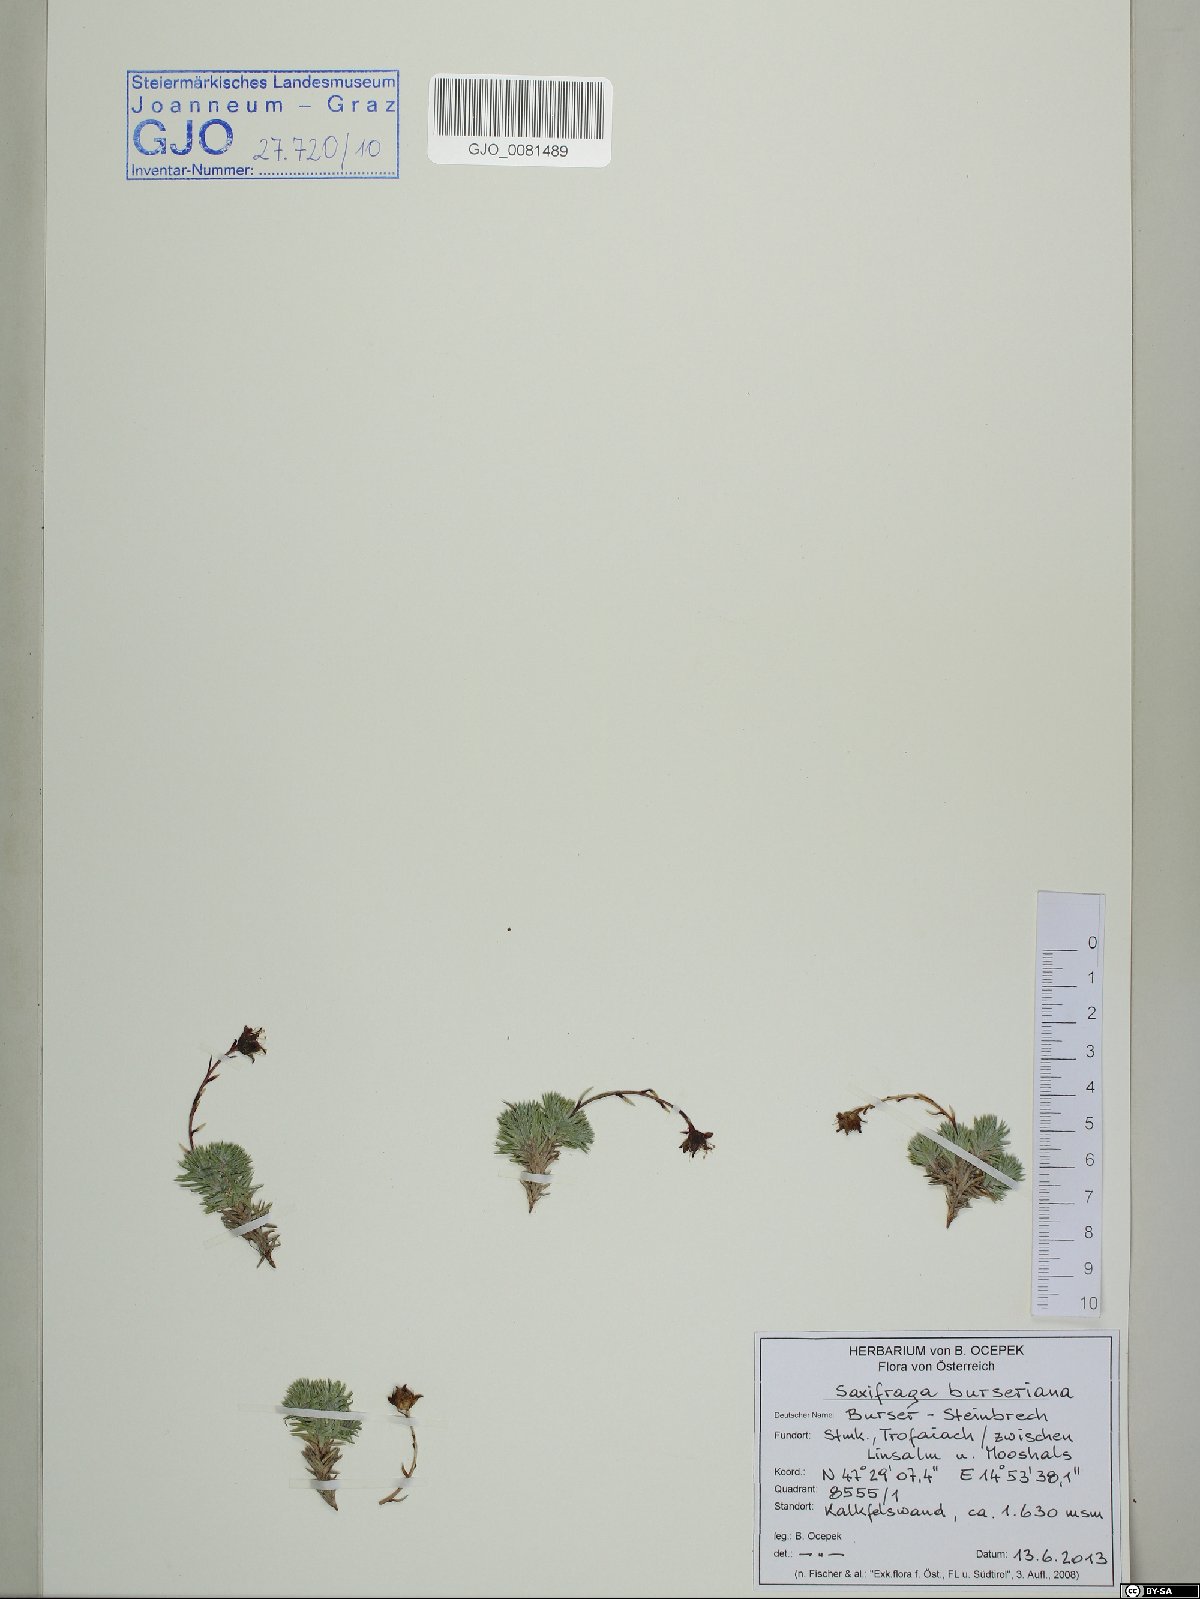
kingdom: Plantae
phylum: Tracheophyta
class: Magnoliopsida
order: Saxifragales
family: Saxifragaceae
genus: Saxifraga
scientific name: Saxifraga burseriana
